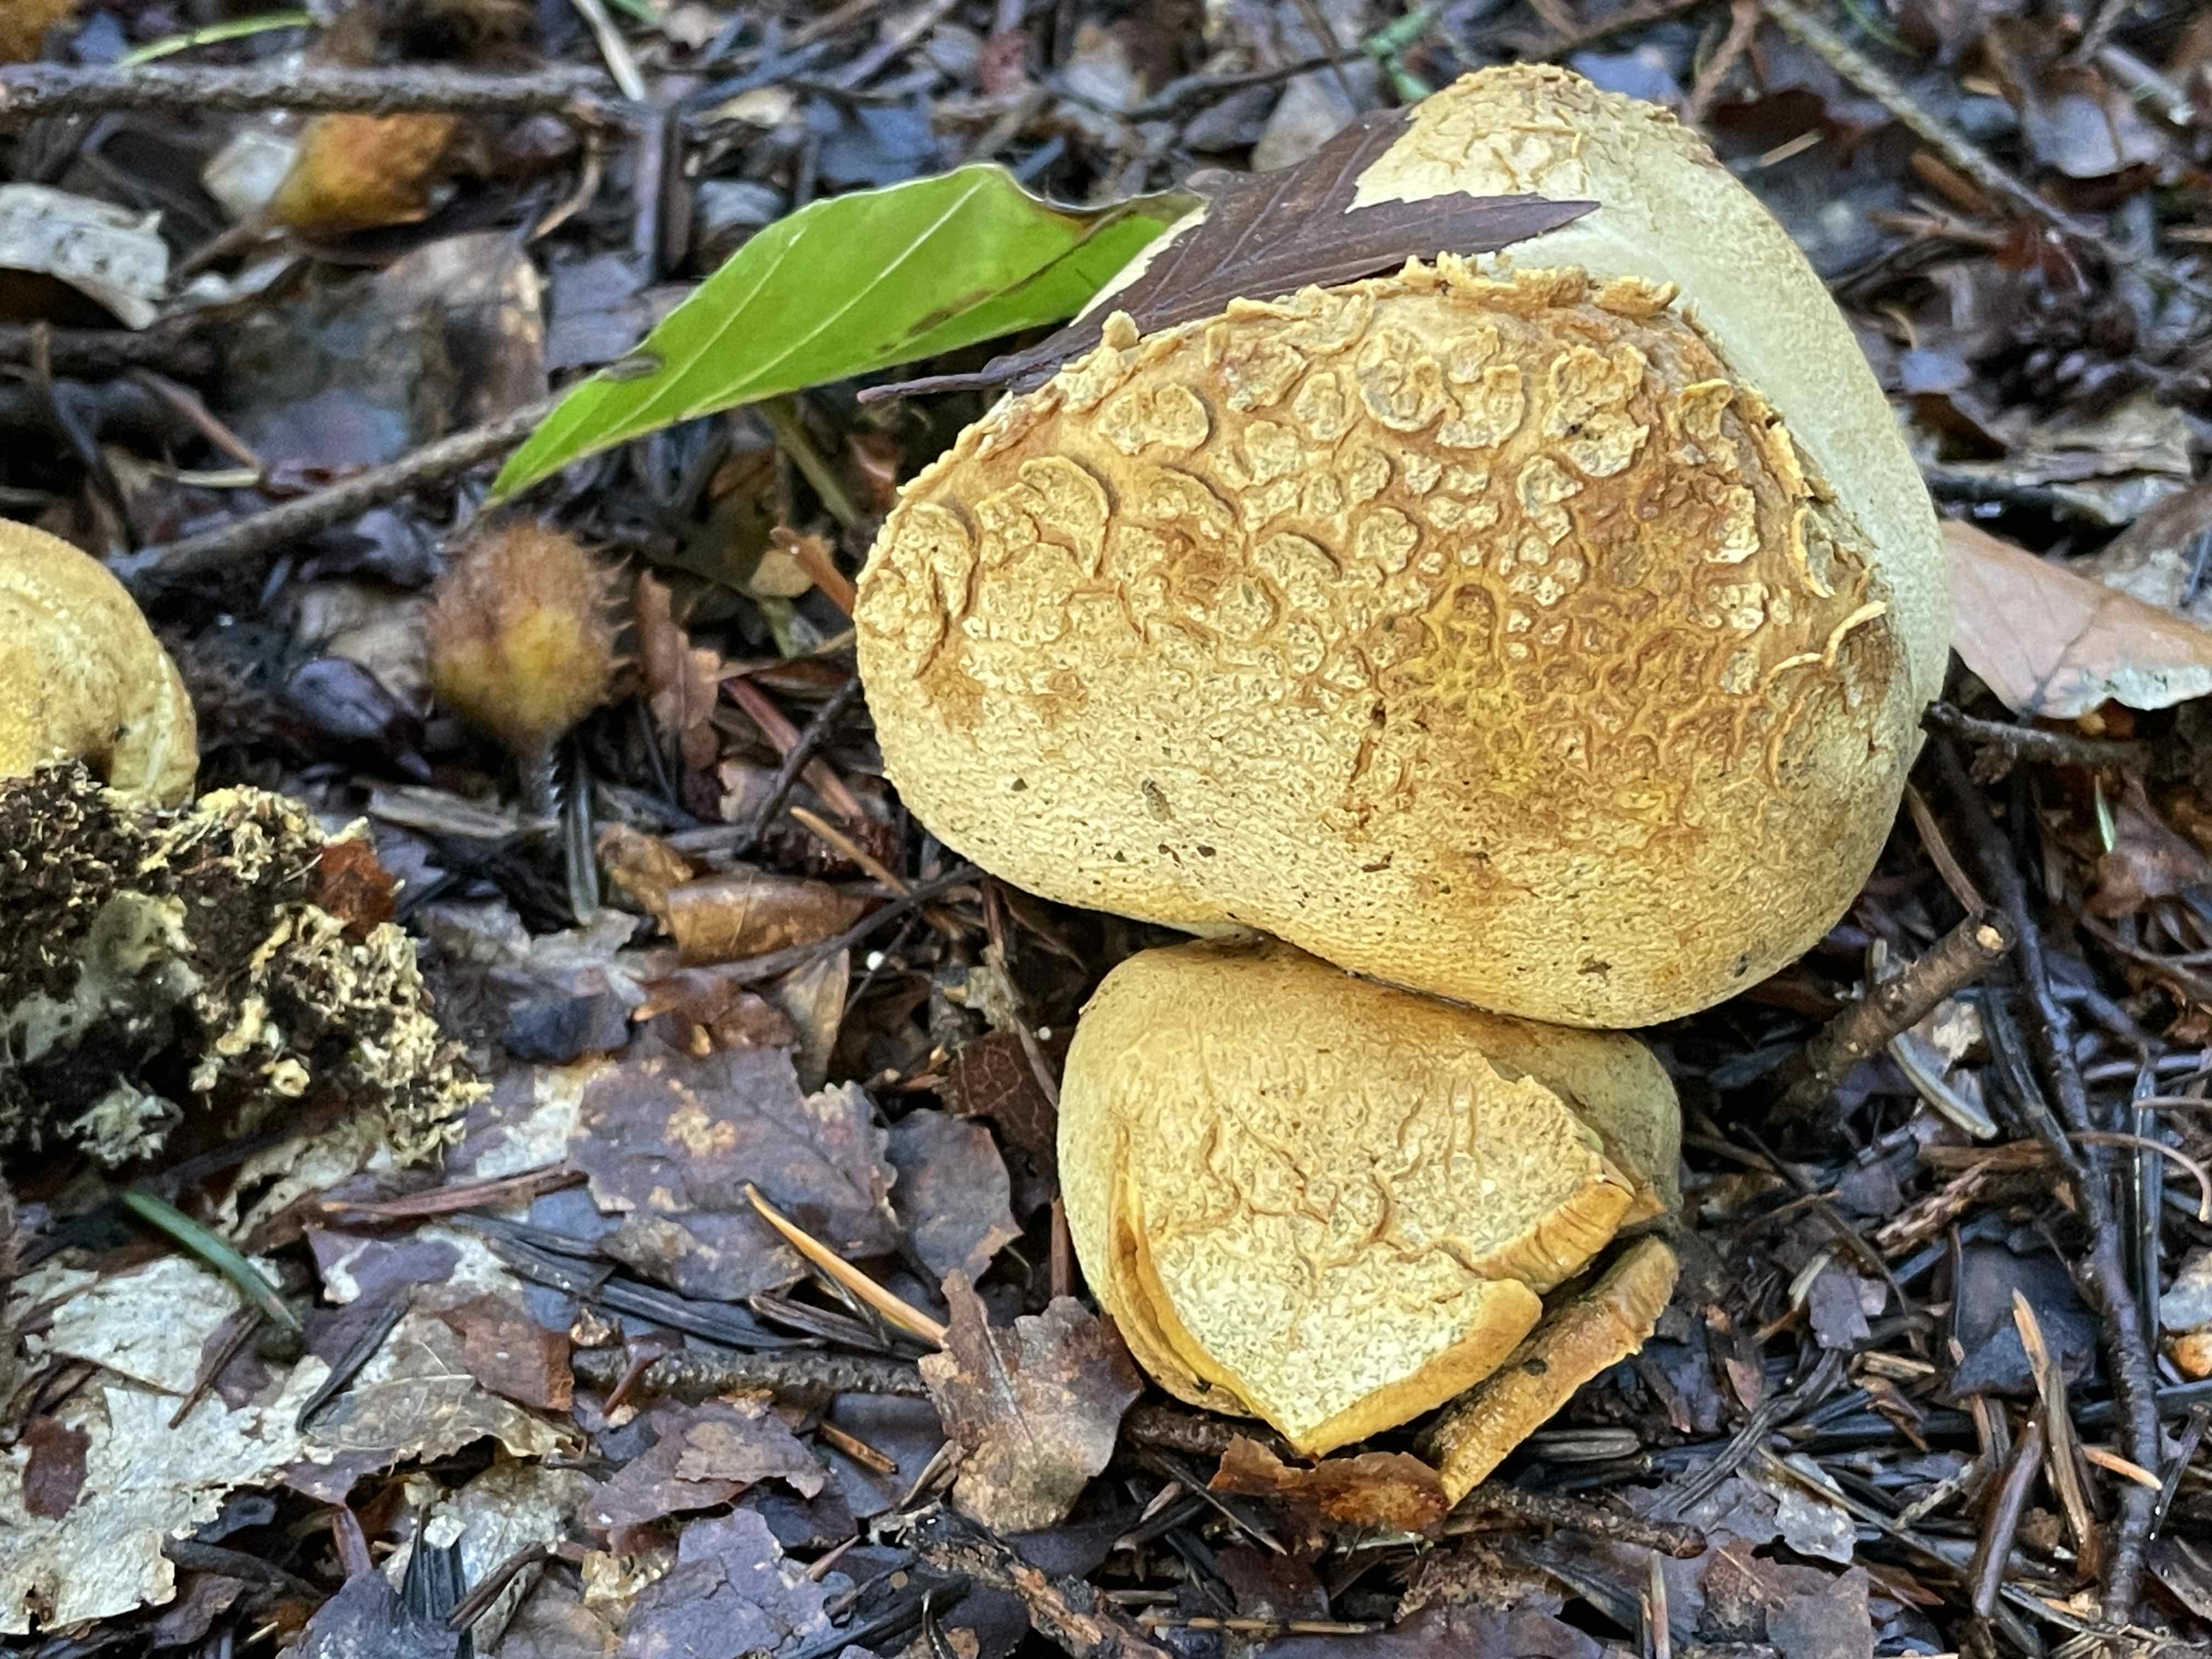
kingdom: Fungi
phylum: Basidiomycota
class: Agaricomycetes
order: Boletales
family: Sclerodermataceae
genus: Scleroderma
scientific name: Scleroderma citrinum
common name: almindelig bruskbold
